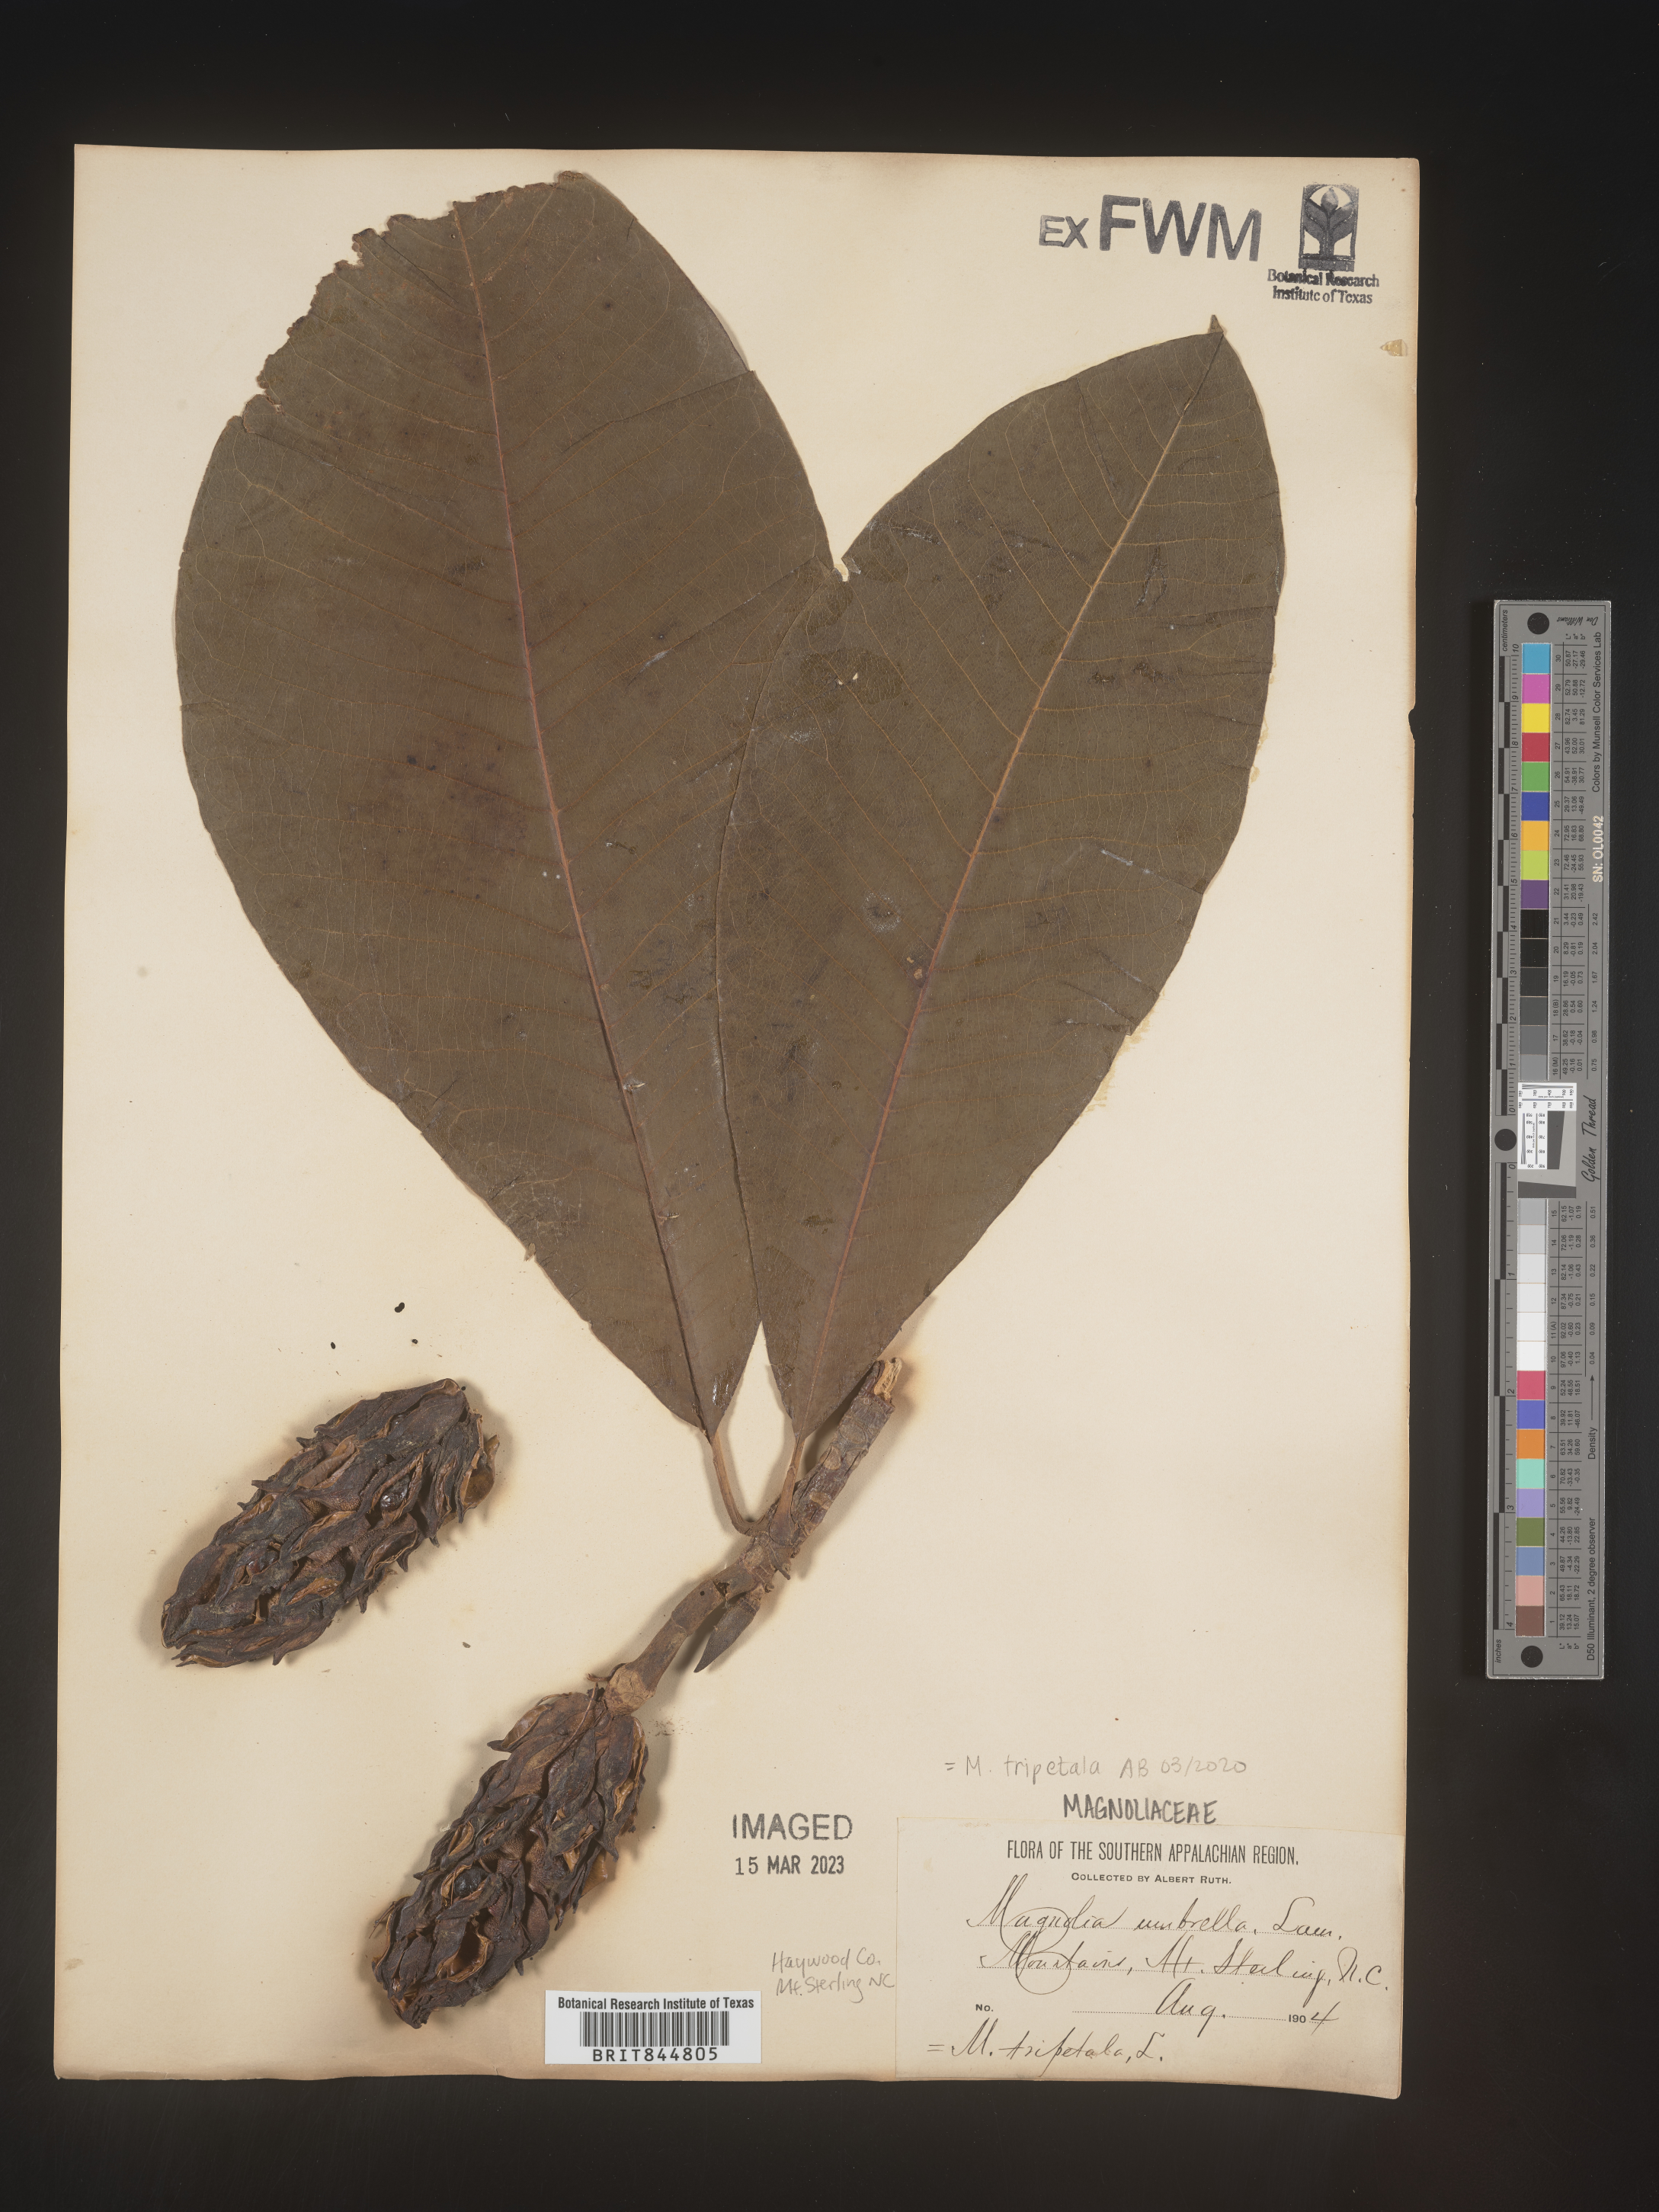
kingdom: Plantae
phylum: Tracheophyta
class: Magnoliopsida
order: Magnoliales
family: Magnoliaceae
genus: Magnolia
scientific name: Magnolia tripetala
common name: Umbrella magnolia
